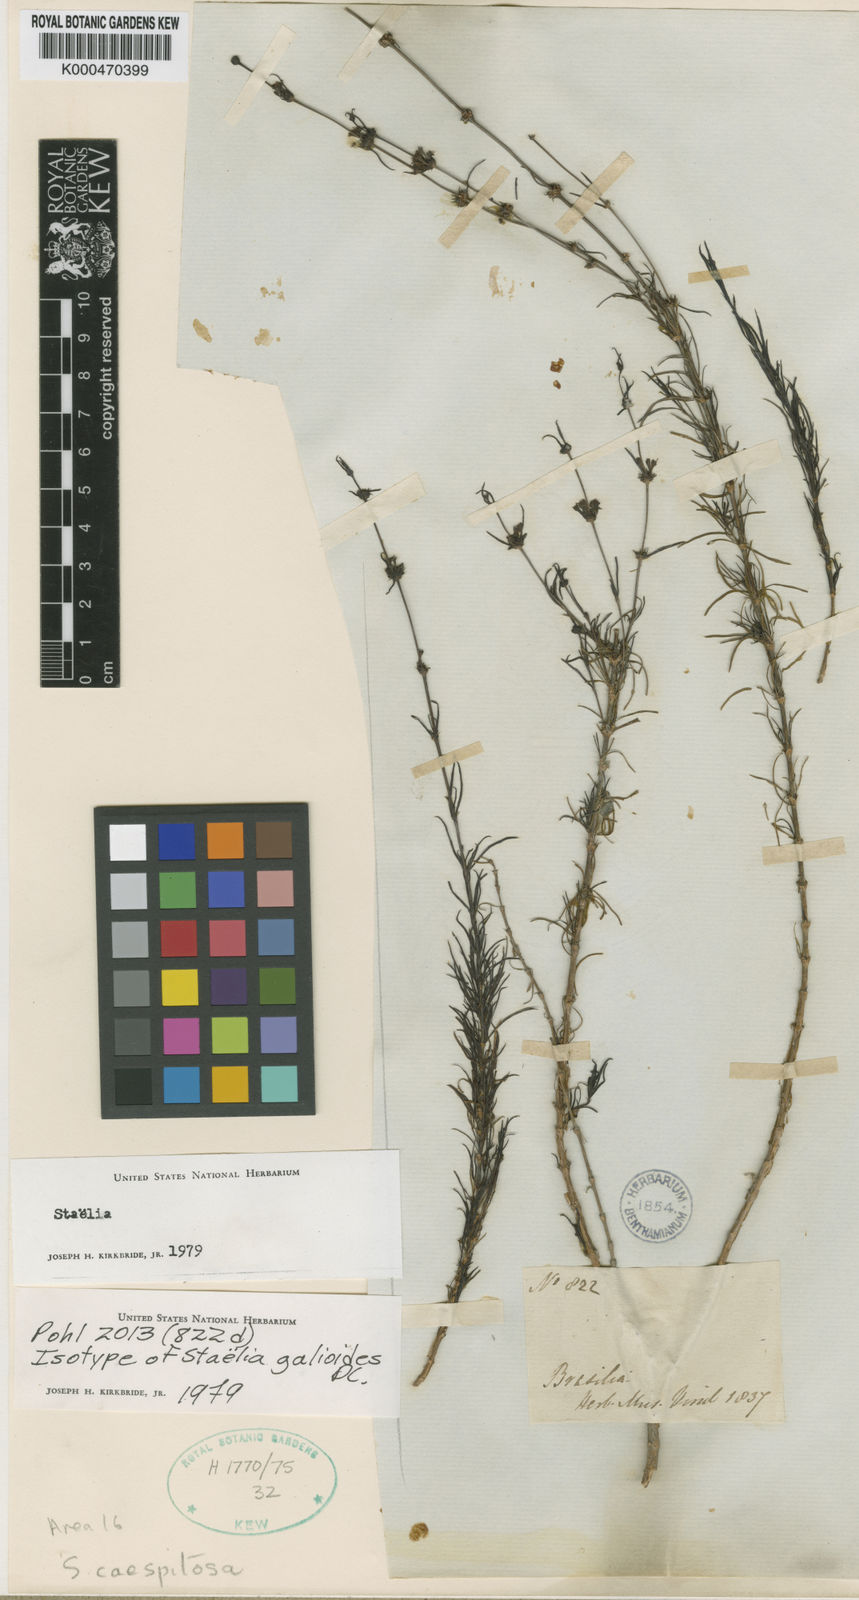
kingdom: Plantae
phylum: Tracheophyta
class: Magnoliopsida
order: Gentianales
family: Rubiaceae
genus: Staelia
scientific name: Staelia galioides
